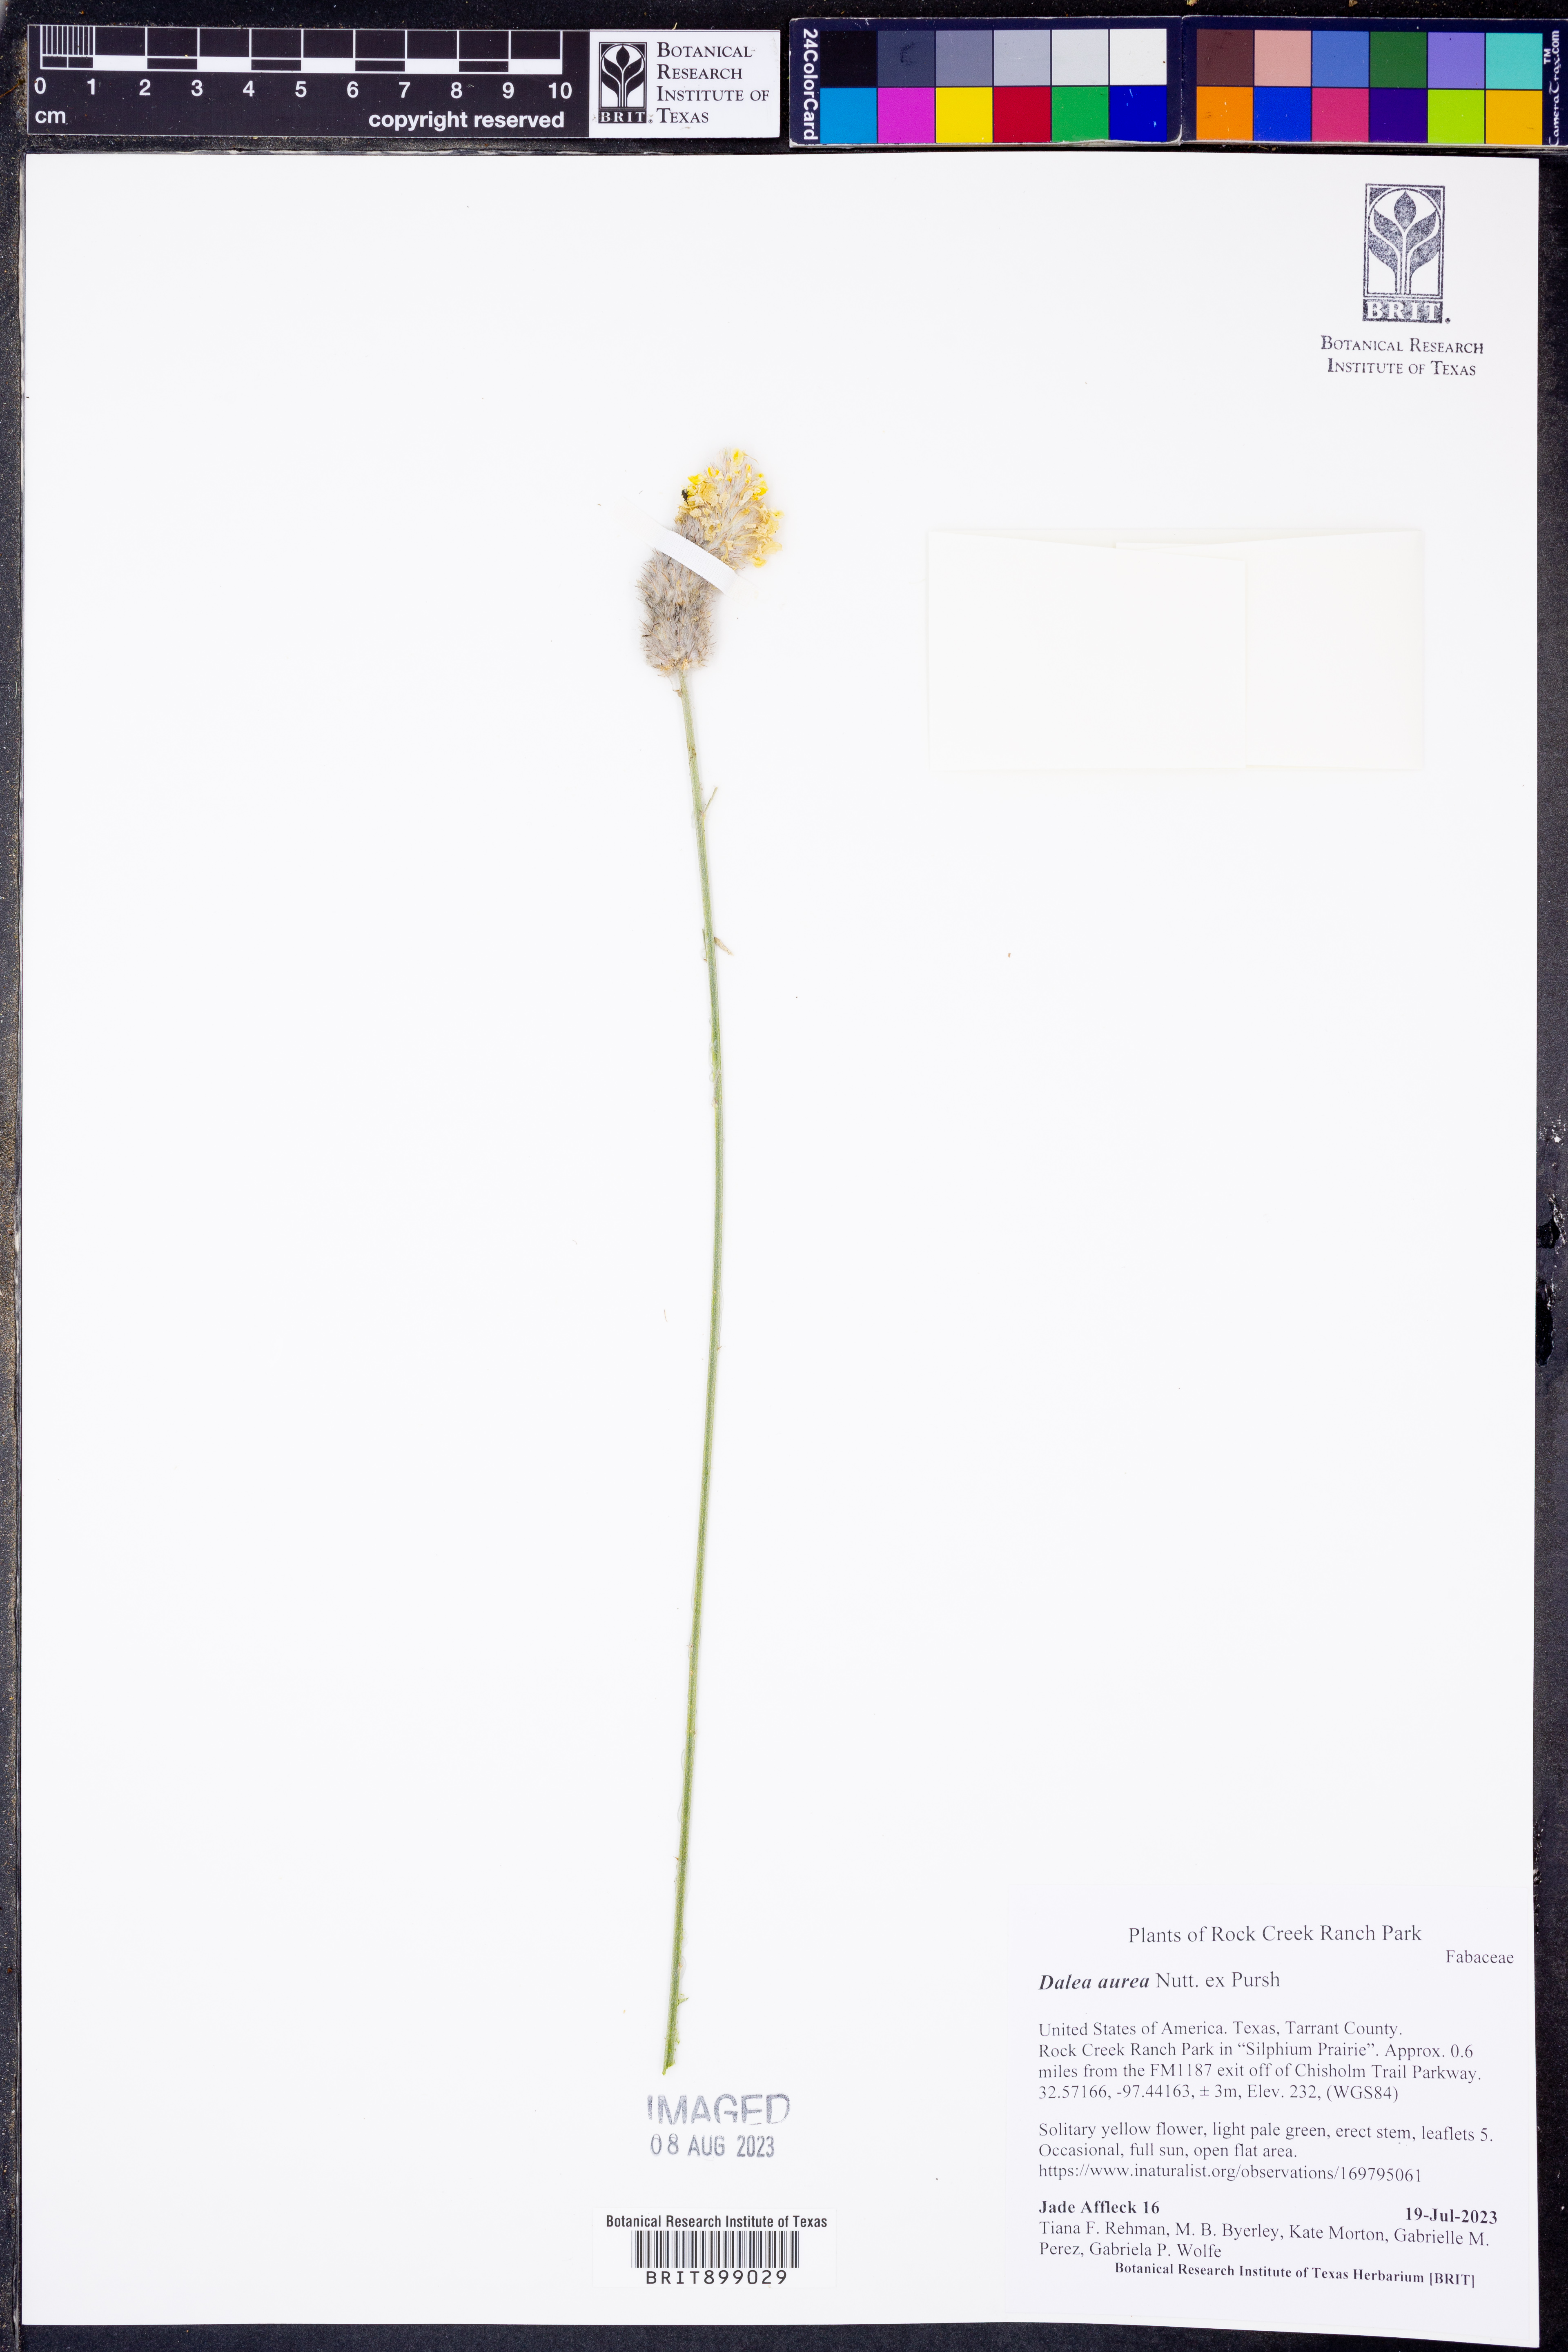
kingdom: Plantae
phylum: Tracheophyta
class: Magnoliopsida
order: Fabales
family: Fabaceae
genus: Dalea
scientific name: Dalea aurea
